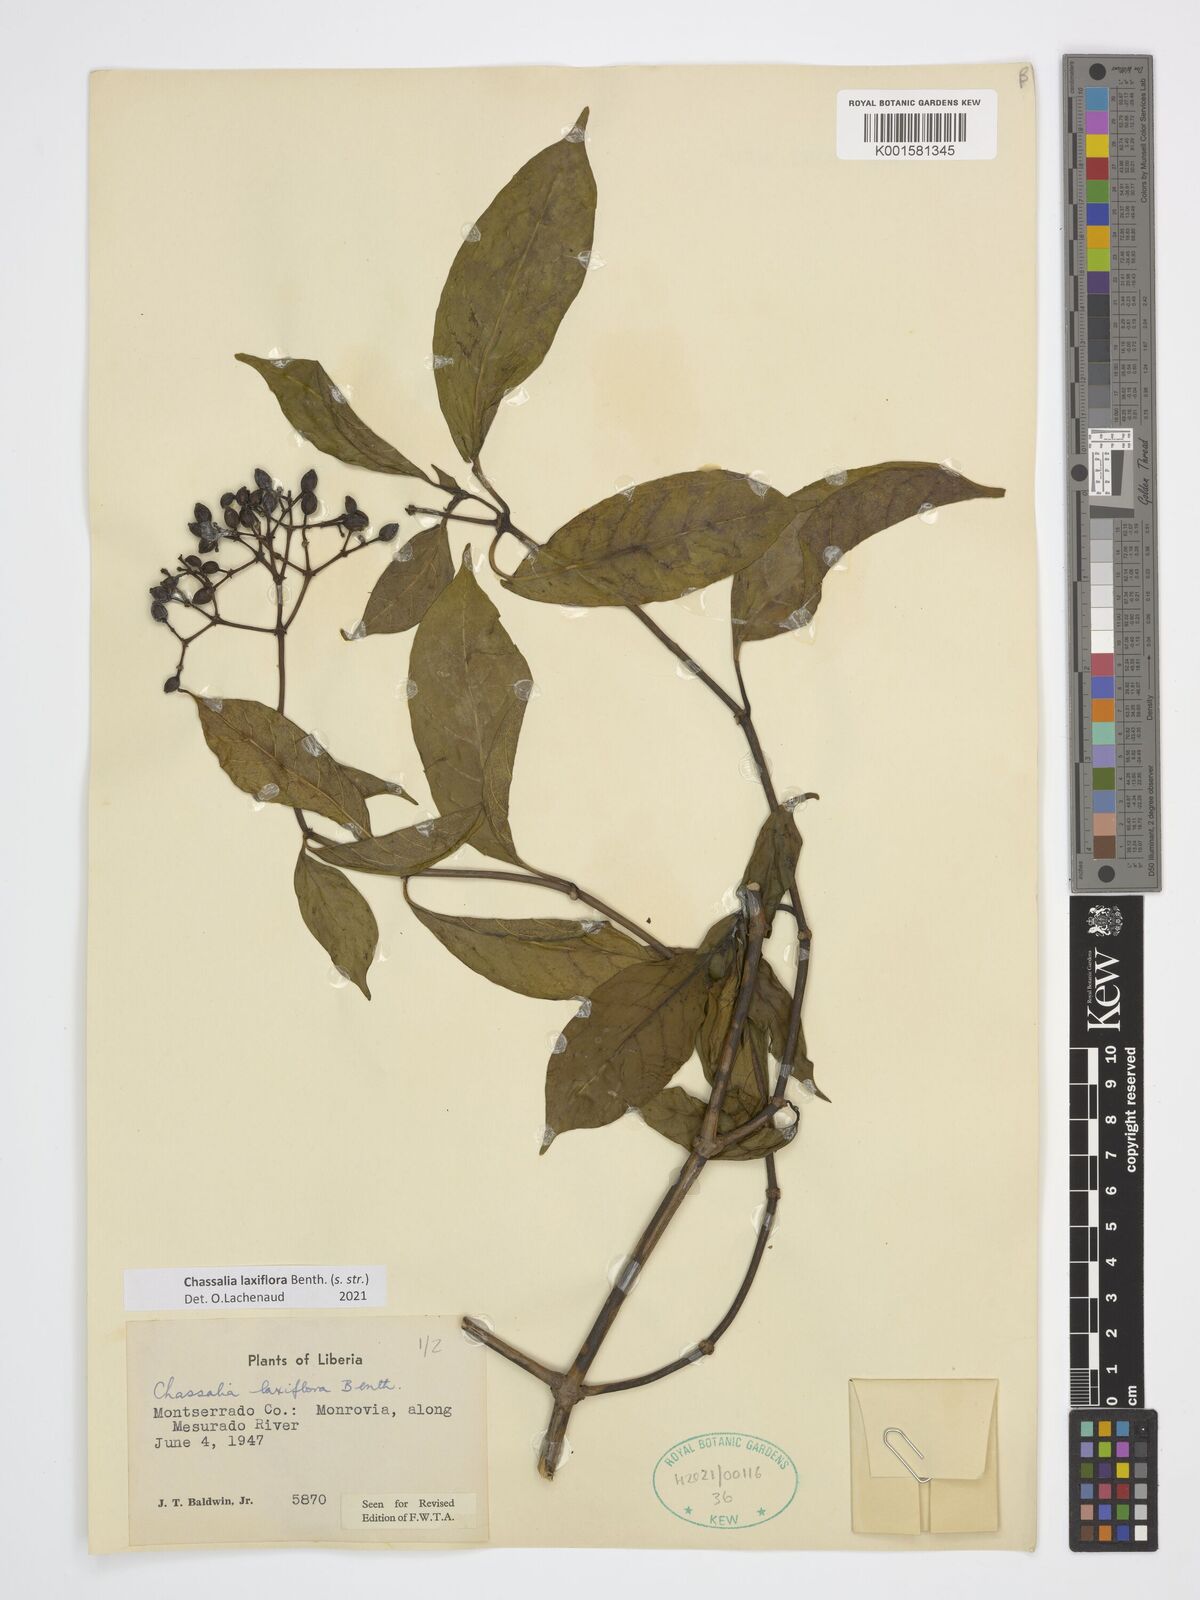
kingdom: Plantae
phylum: Tracheophyta
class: Magnoliopsida
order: Gentianales
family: Rubiaceae
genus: Chassalia
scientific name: Chassalia laxiflora
